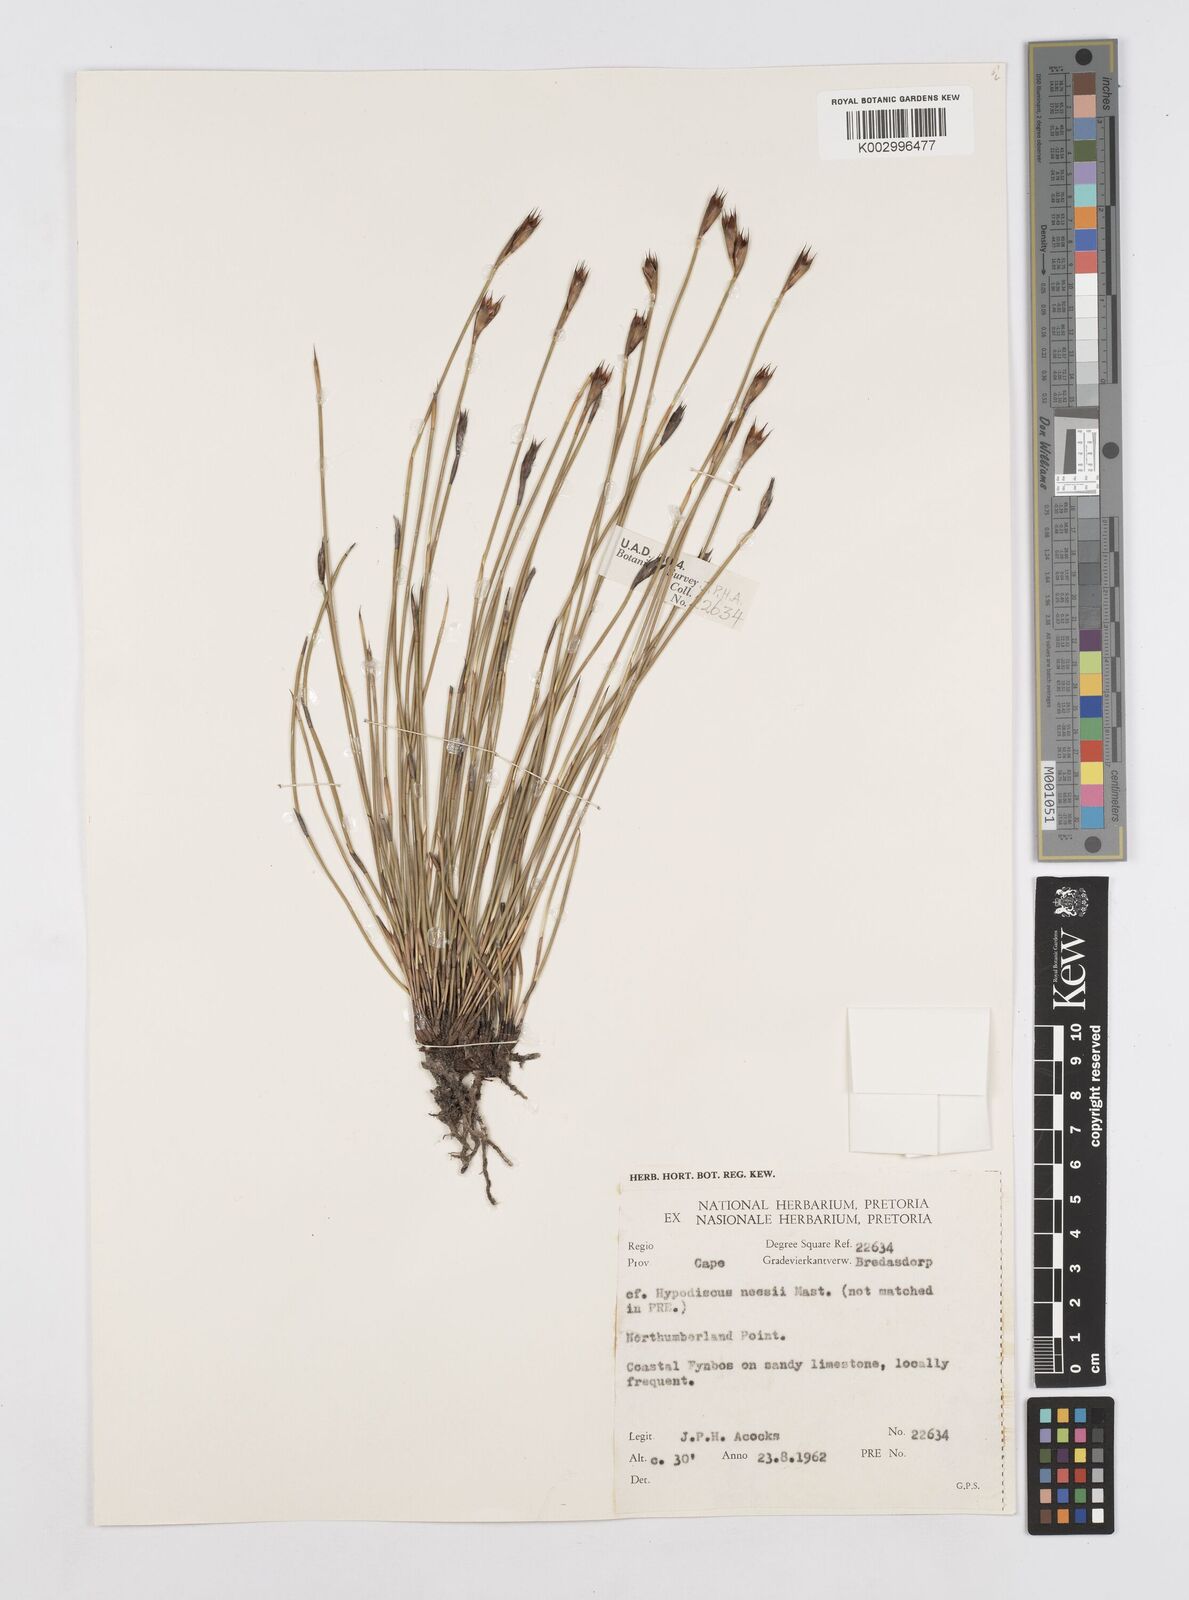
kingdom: Plantae
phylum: Tracheophyta
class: Liliopsida
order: Poales
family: Restionaceae
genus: Hypodiscus
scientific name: Hypodiscus rigidus
